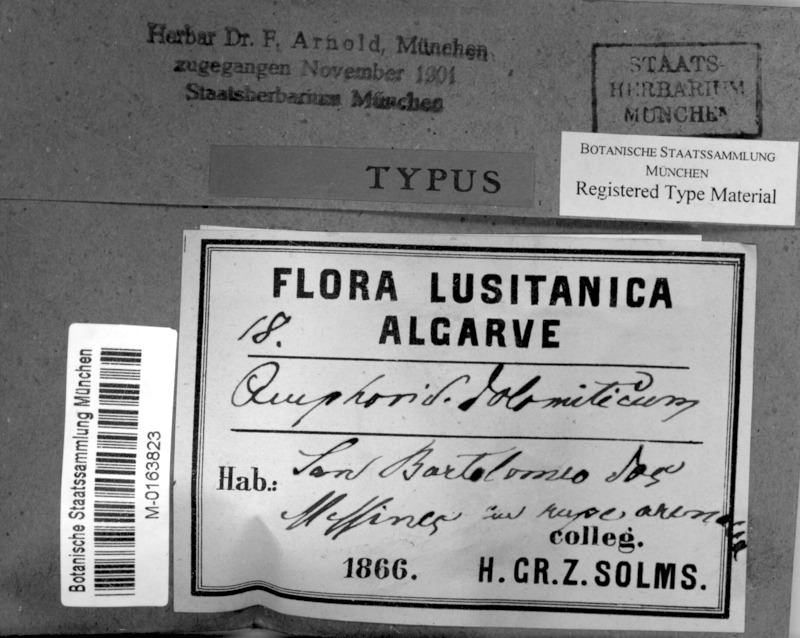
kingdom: Fungi
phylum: Ascomycota
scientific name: Ascomycota
